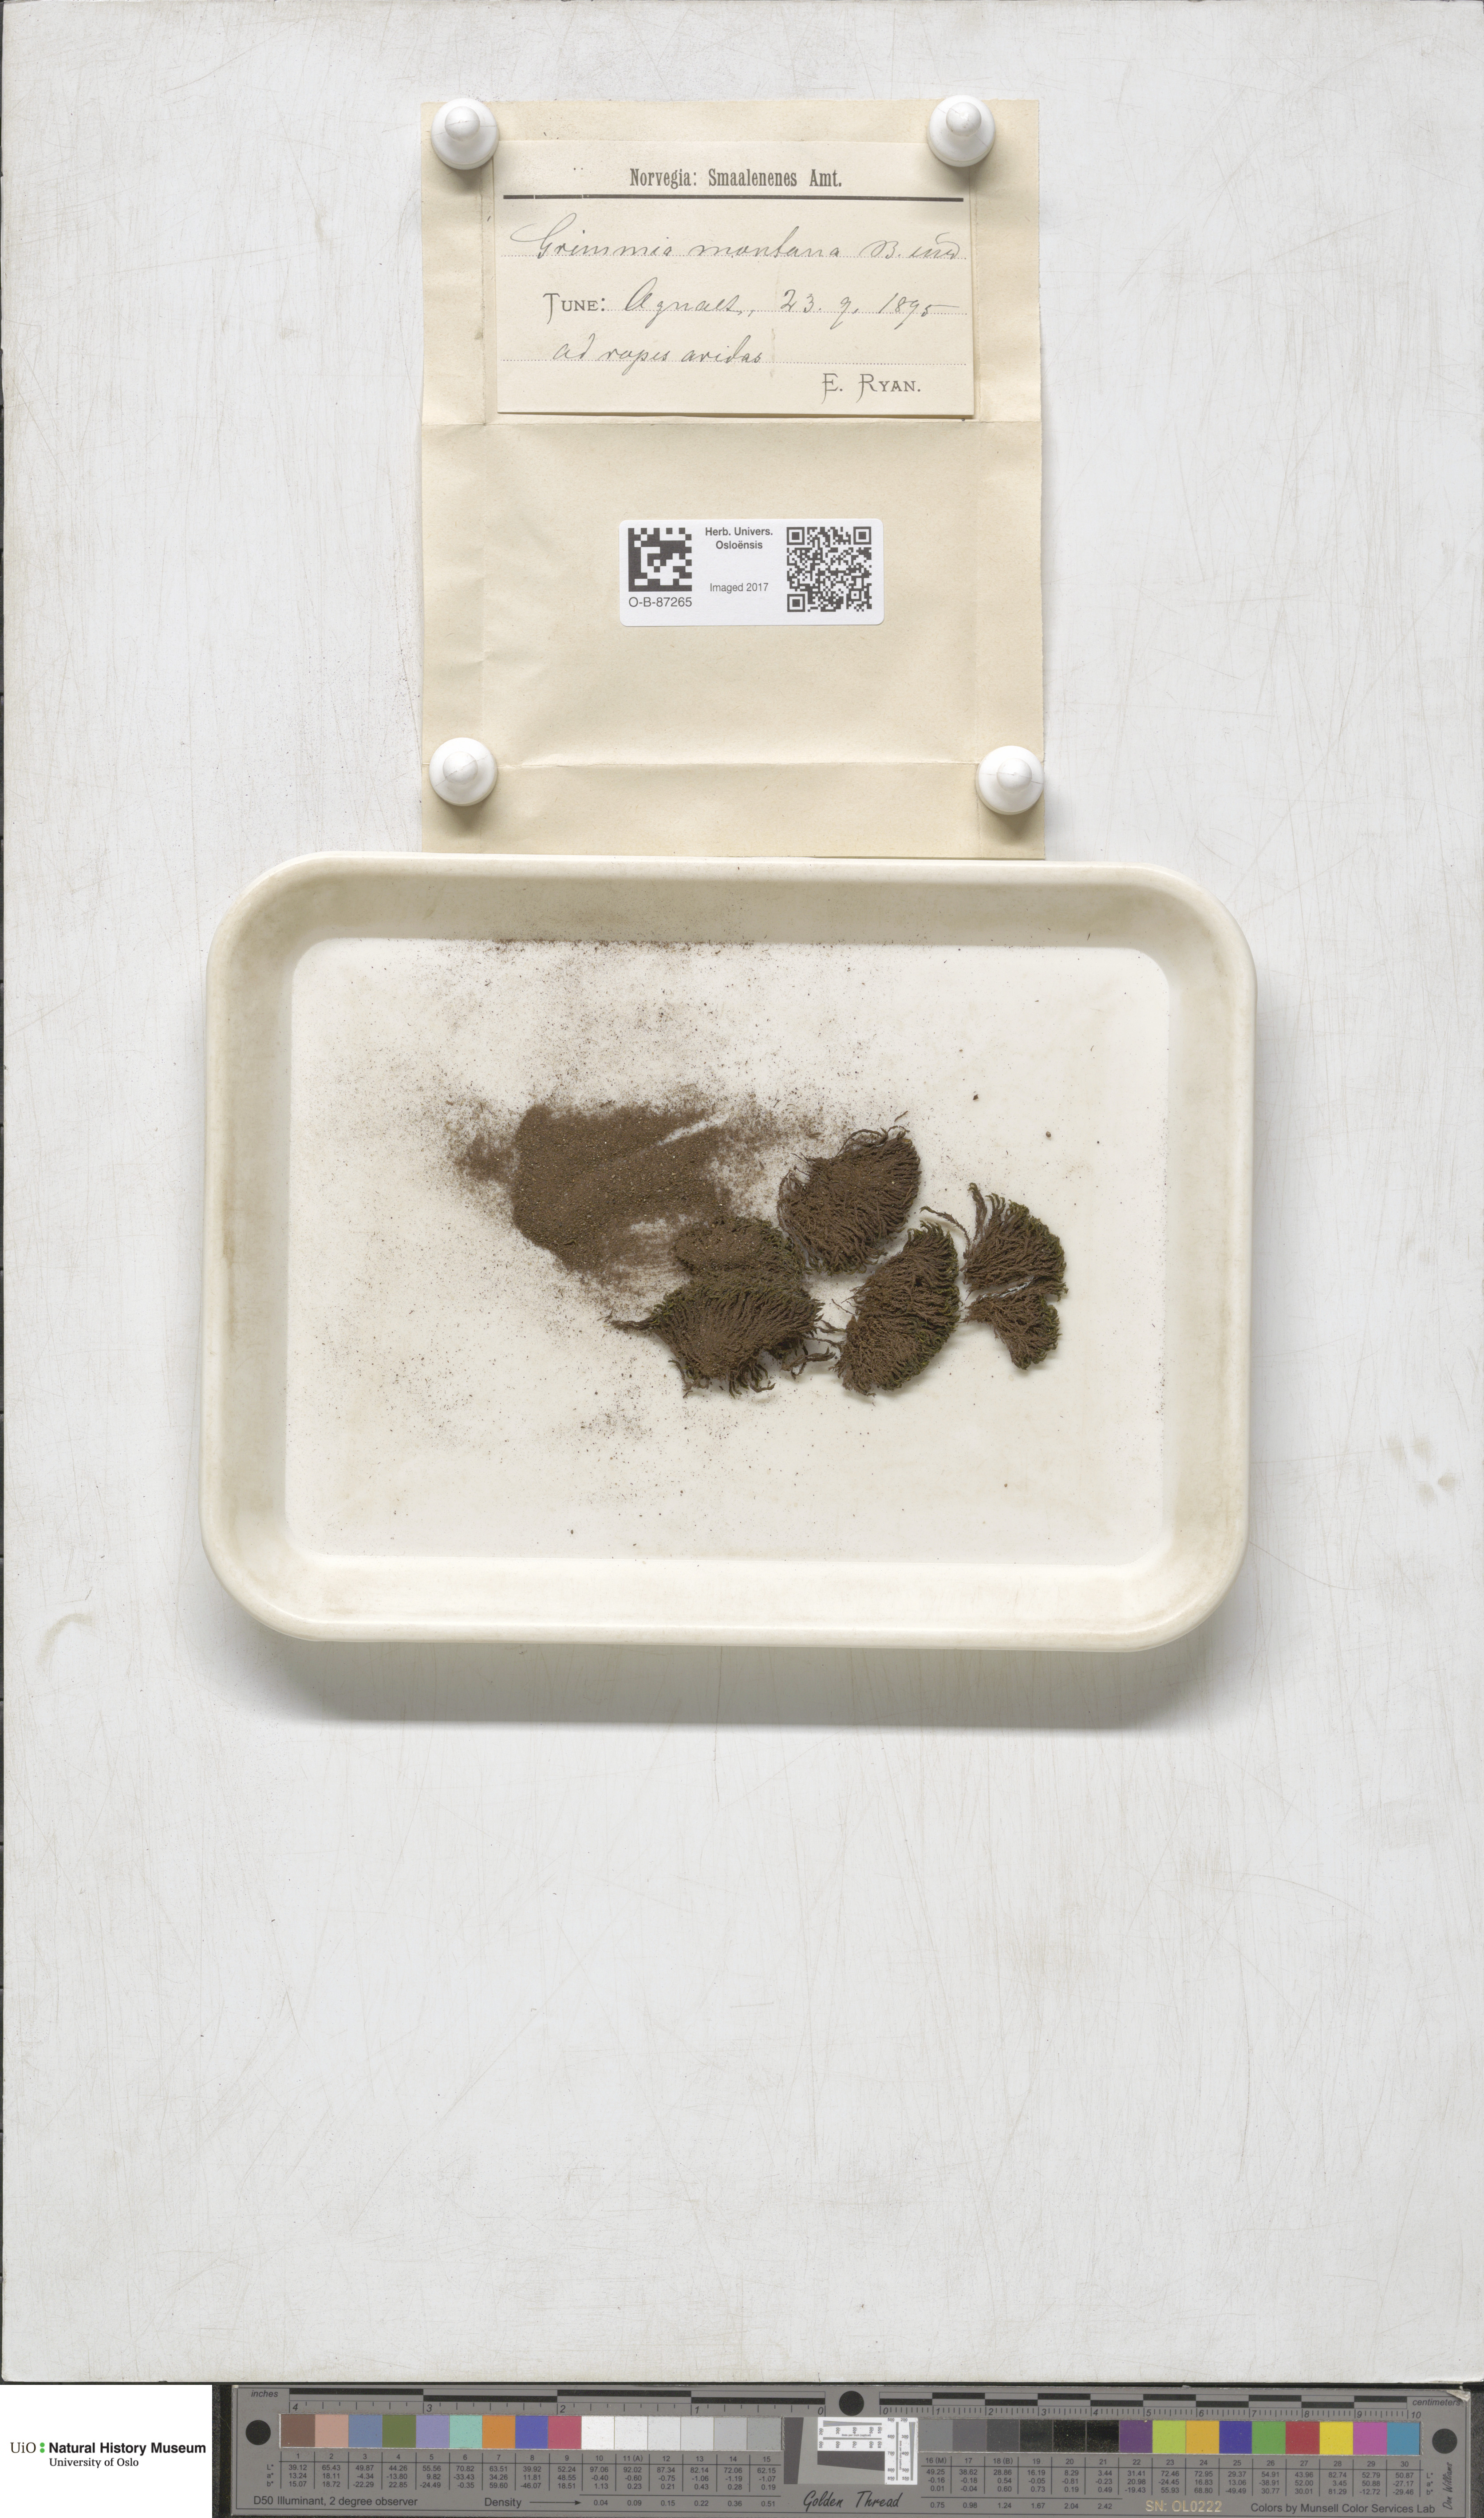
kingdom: Plantae
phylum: Bryophyta
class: Bryopsida
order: Grimmiales
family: Grimmiaceae
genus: Grimmia
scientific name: Grimmia montana
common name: Sun grimmia
